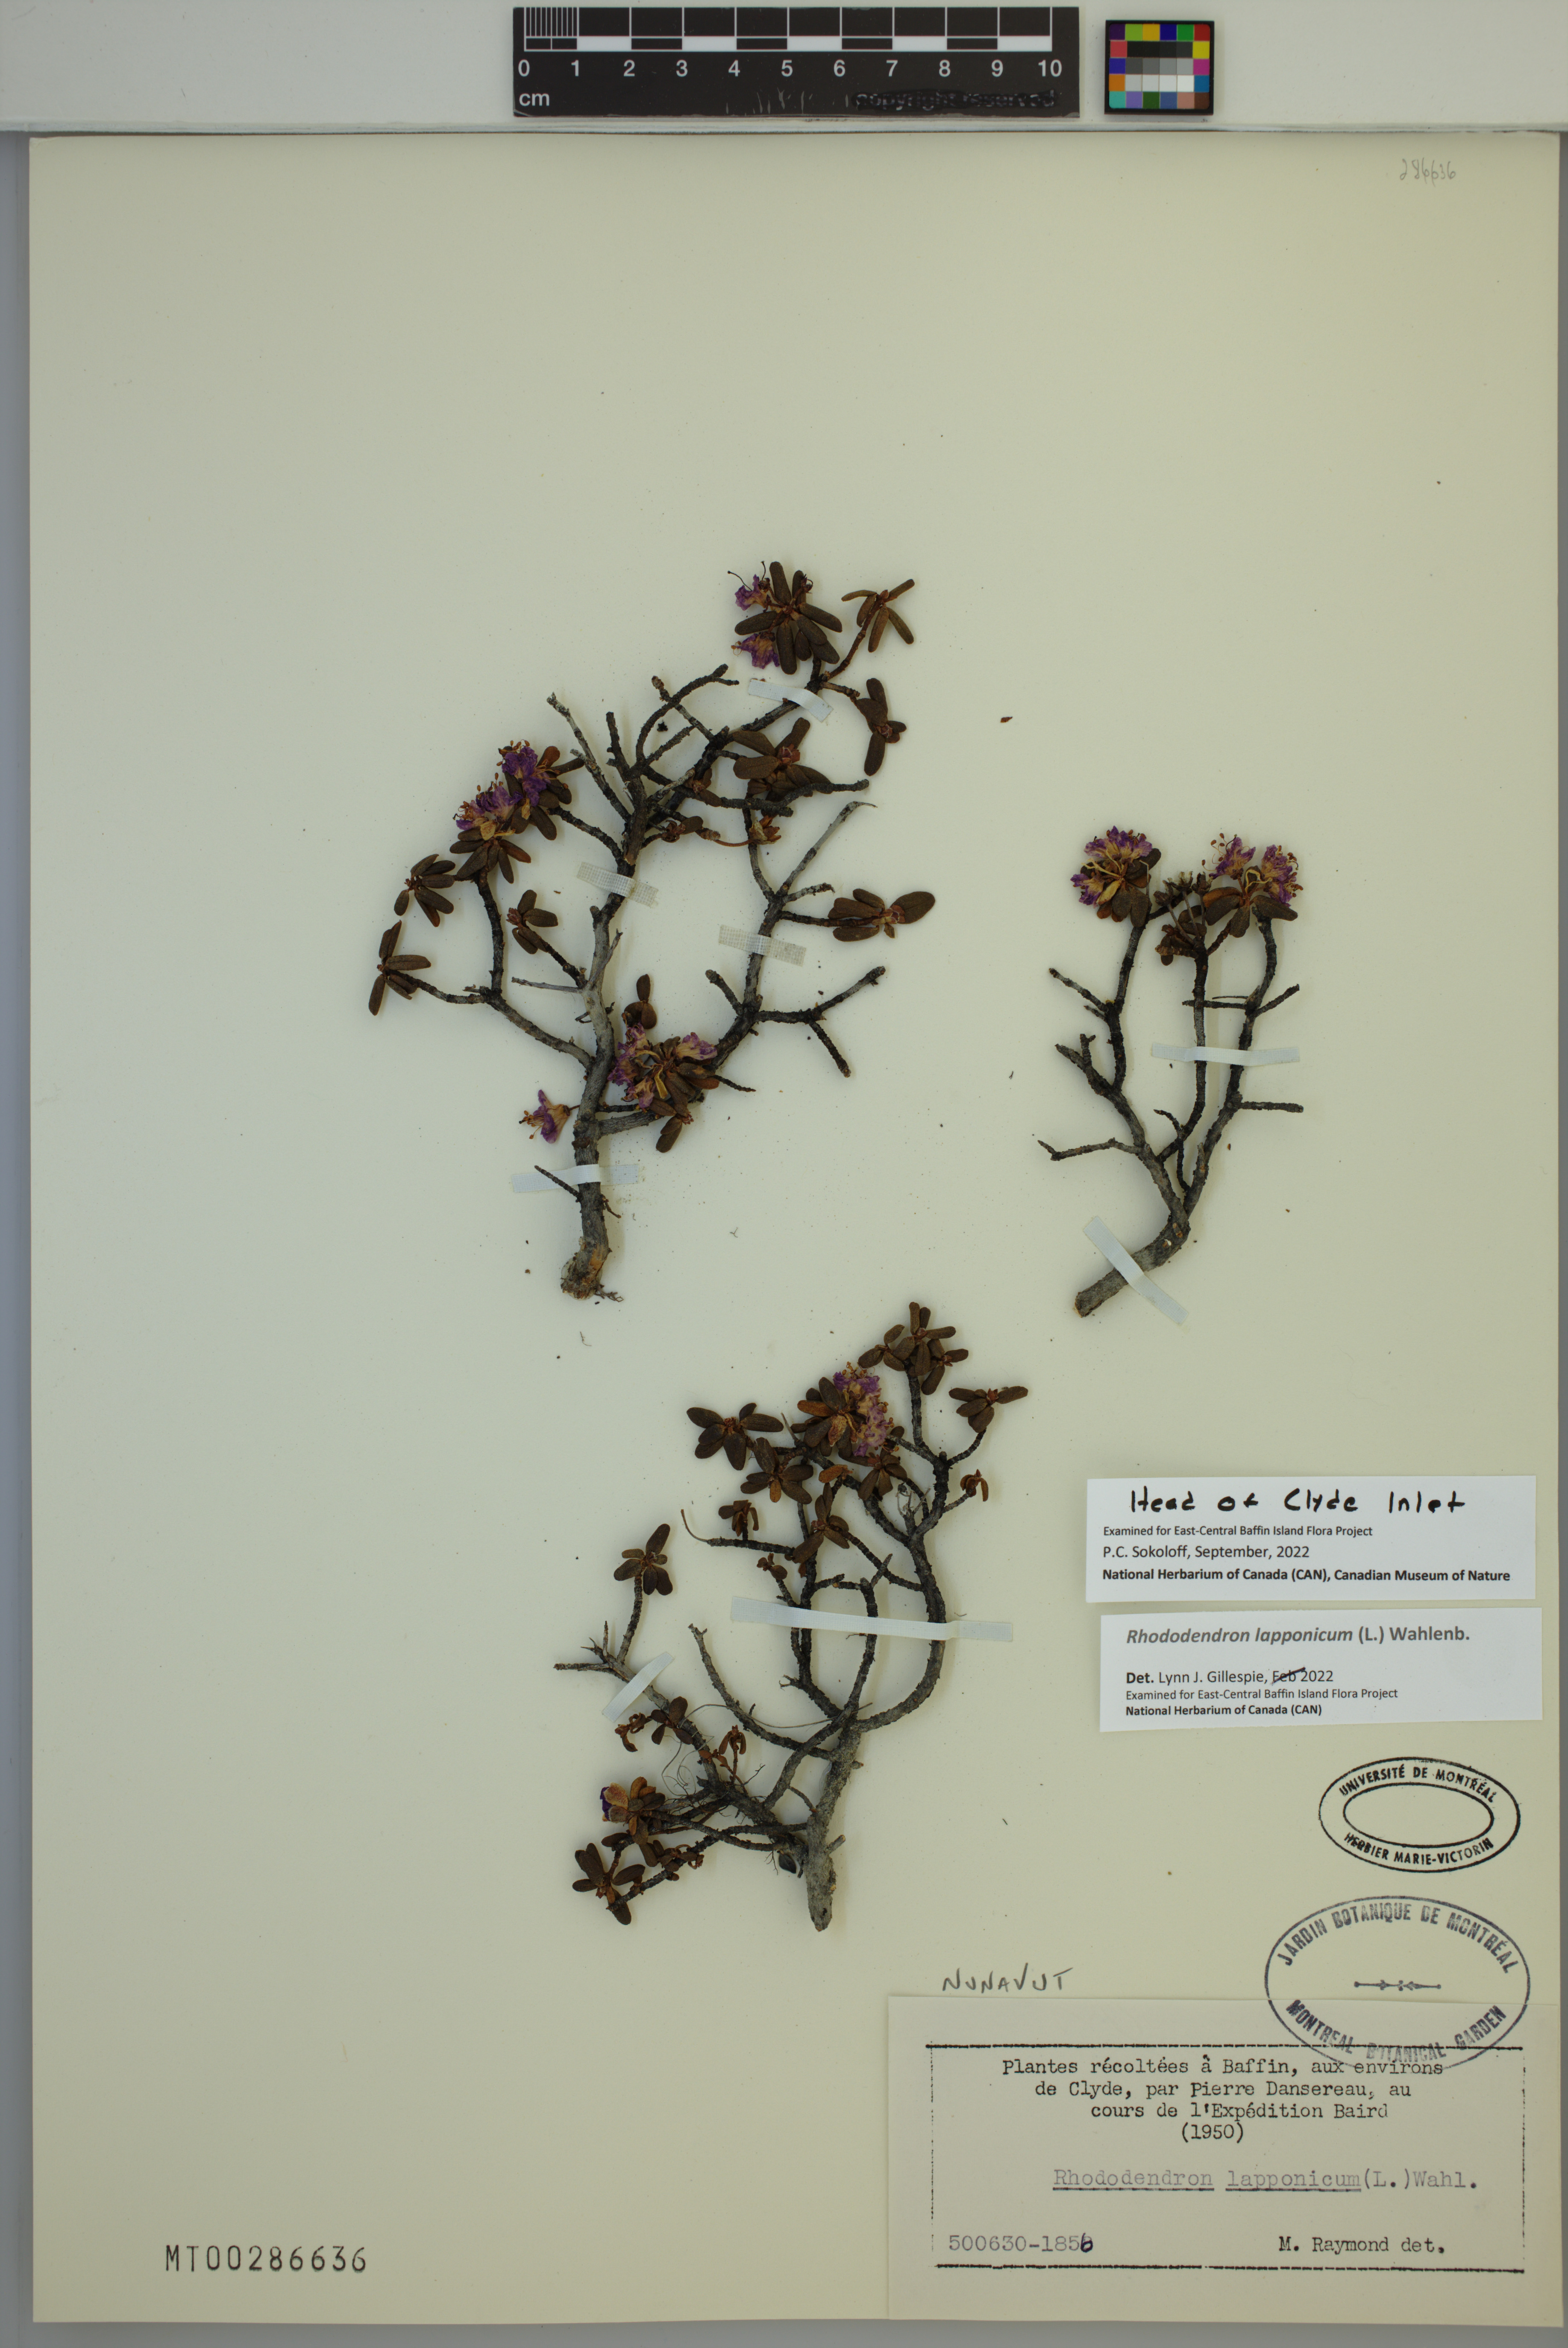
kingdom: Plantae
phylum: Tracheophyta
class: Magnoliopsida
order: Ericales
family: Ericaceae
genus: Rhododendron
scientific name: Rhododendron lapponicum
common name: Lapland rhododendron
